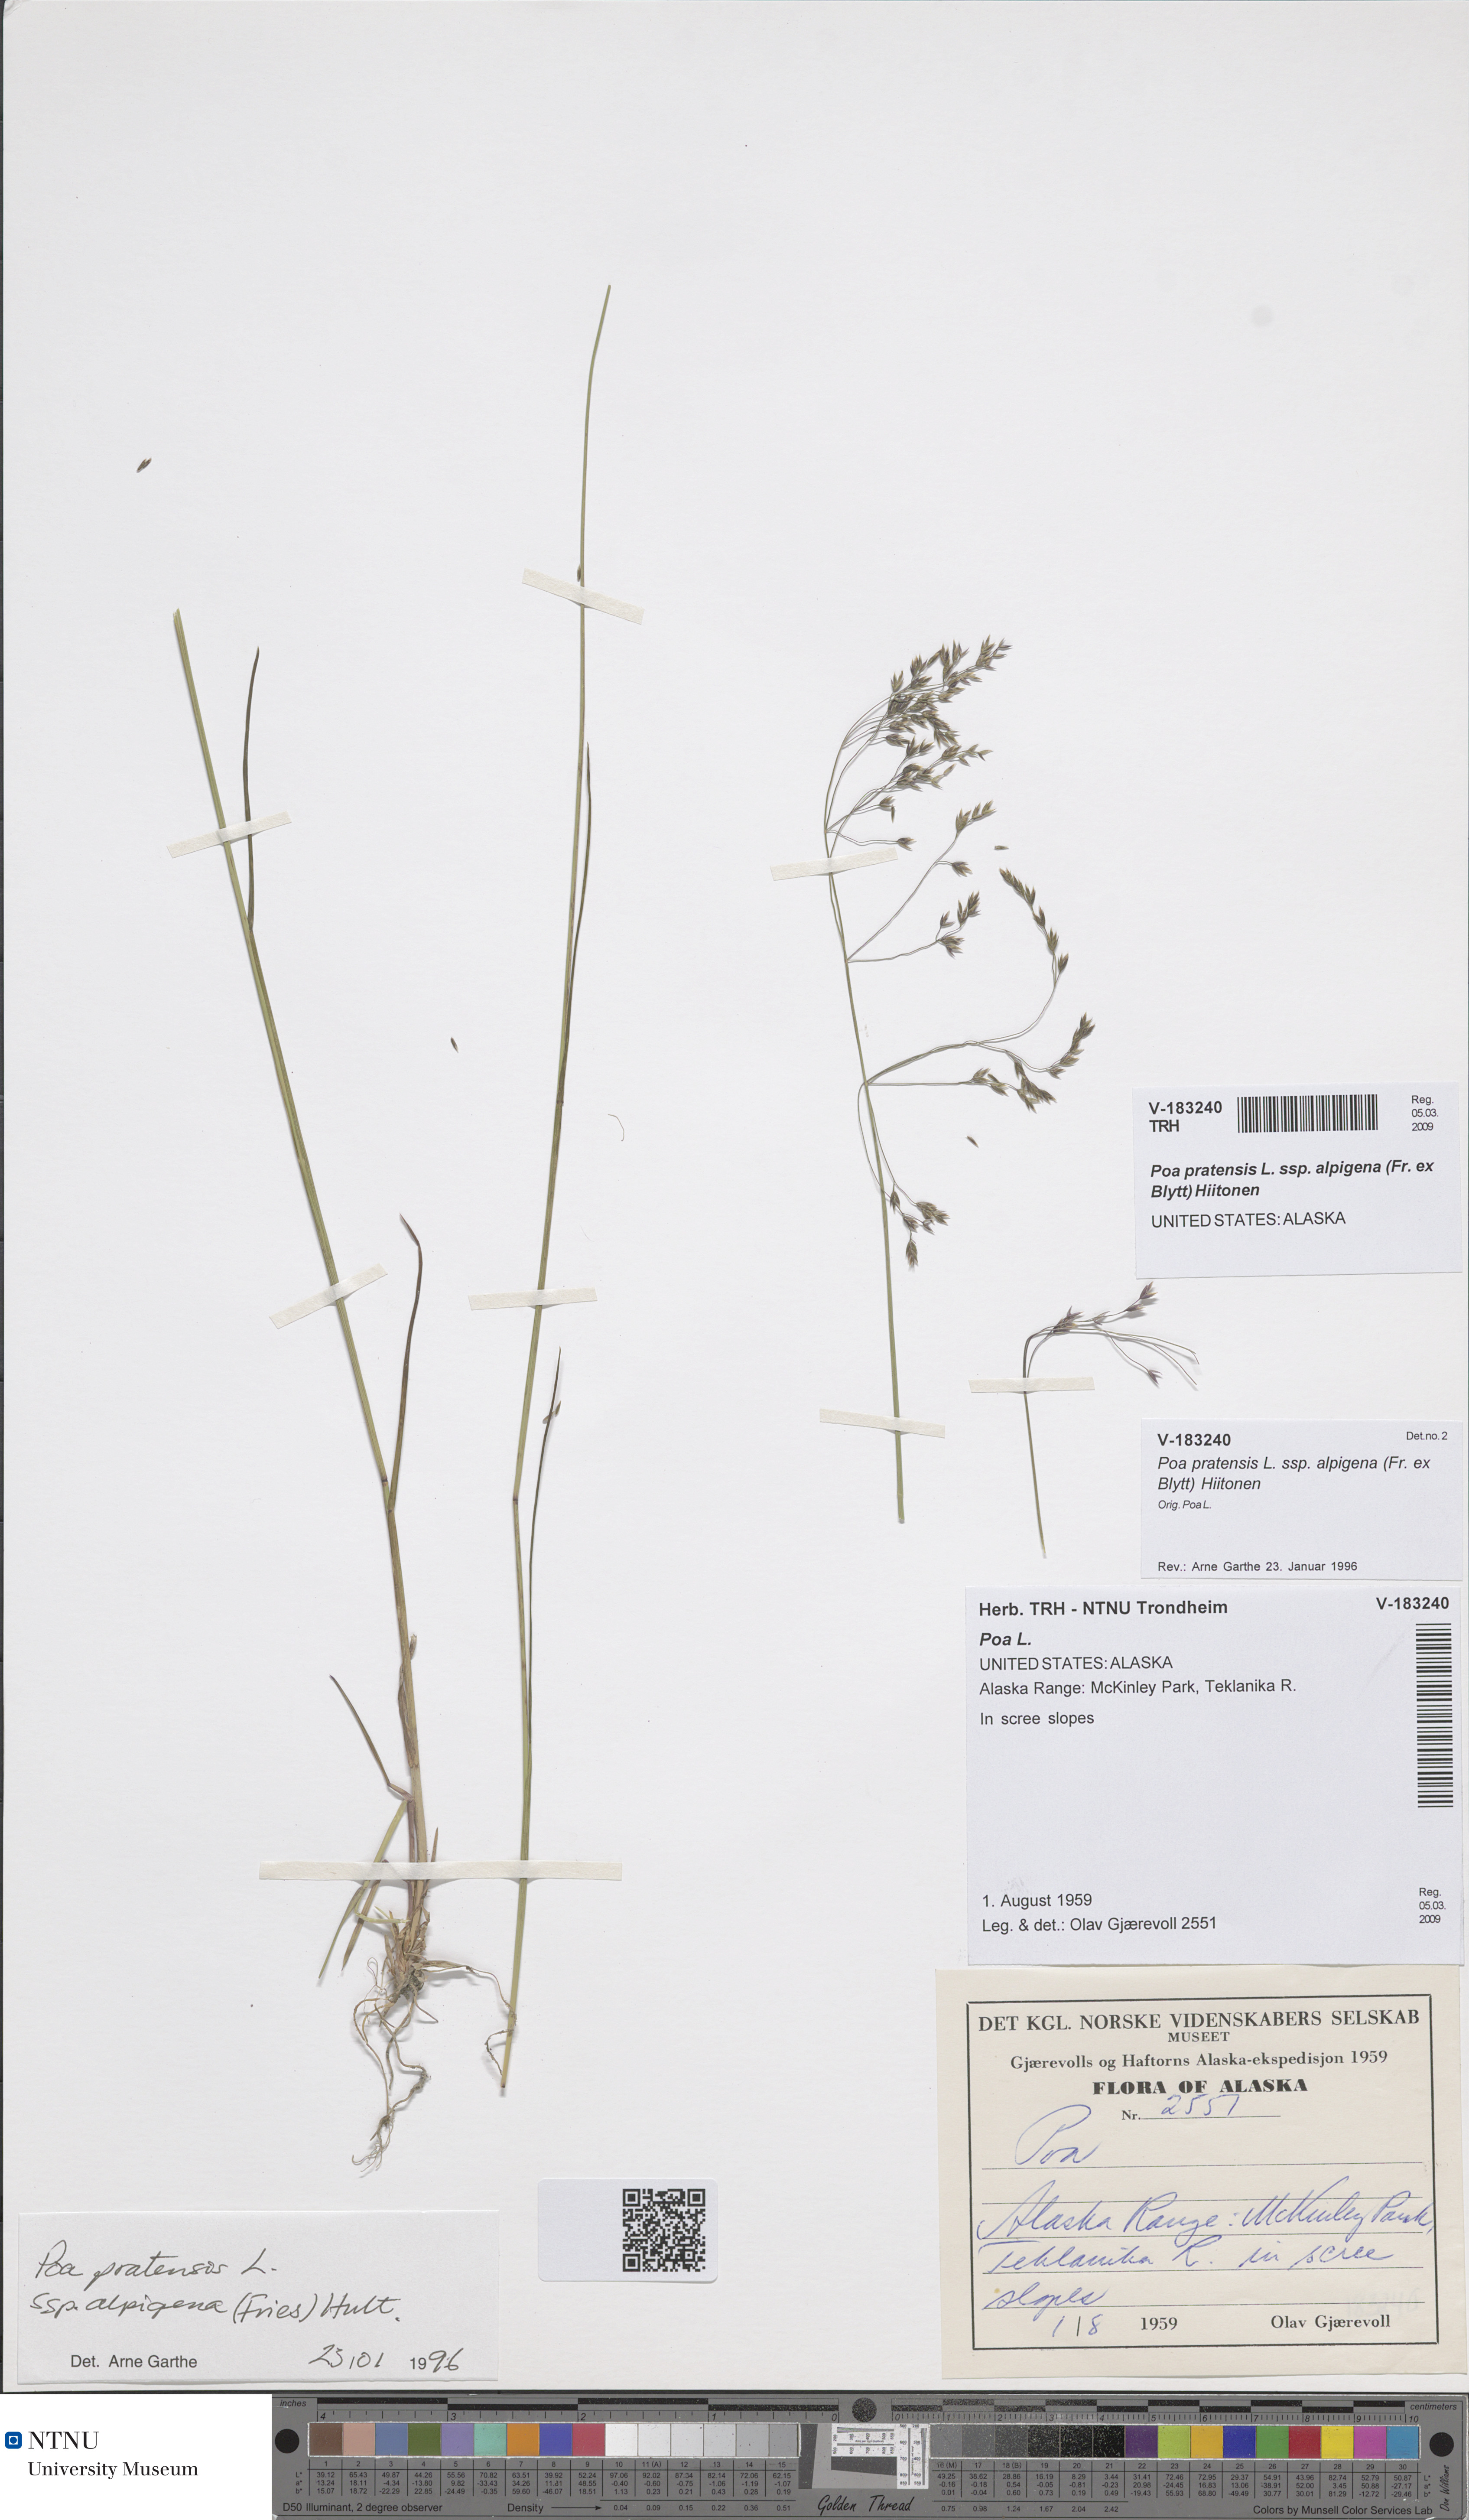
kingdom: Plantae
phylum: Tracheophyta
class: Liliopsida
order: Poales
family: Poaceae
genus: Poa
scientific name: Poa alpigena
